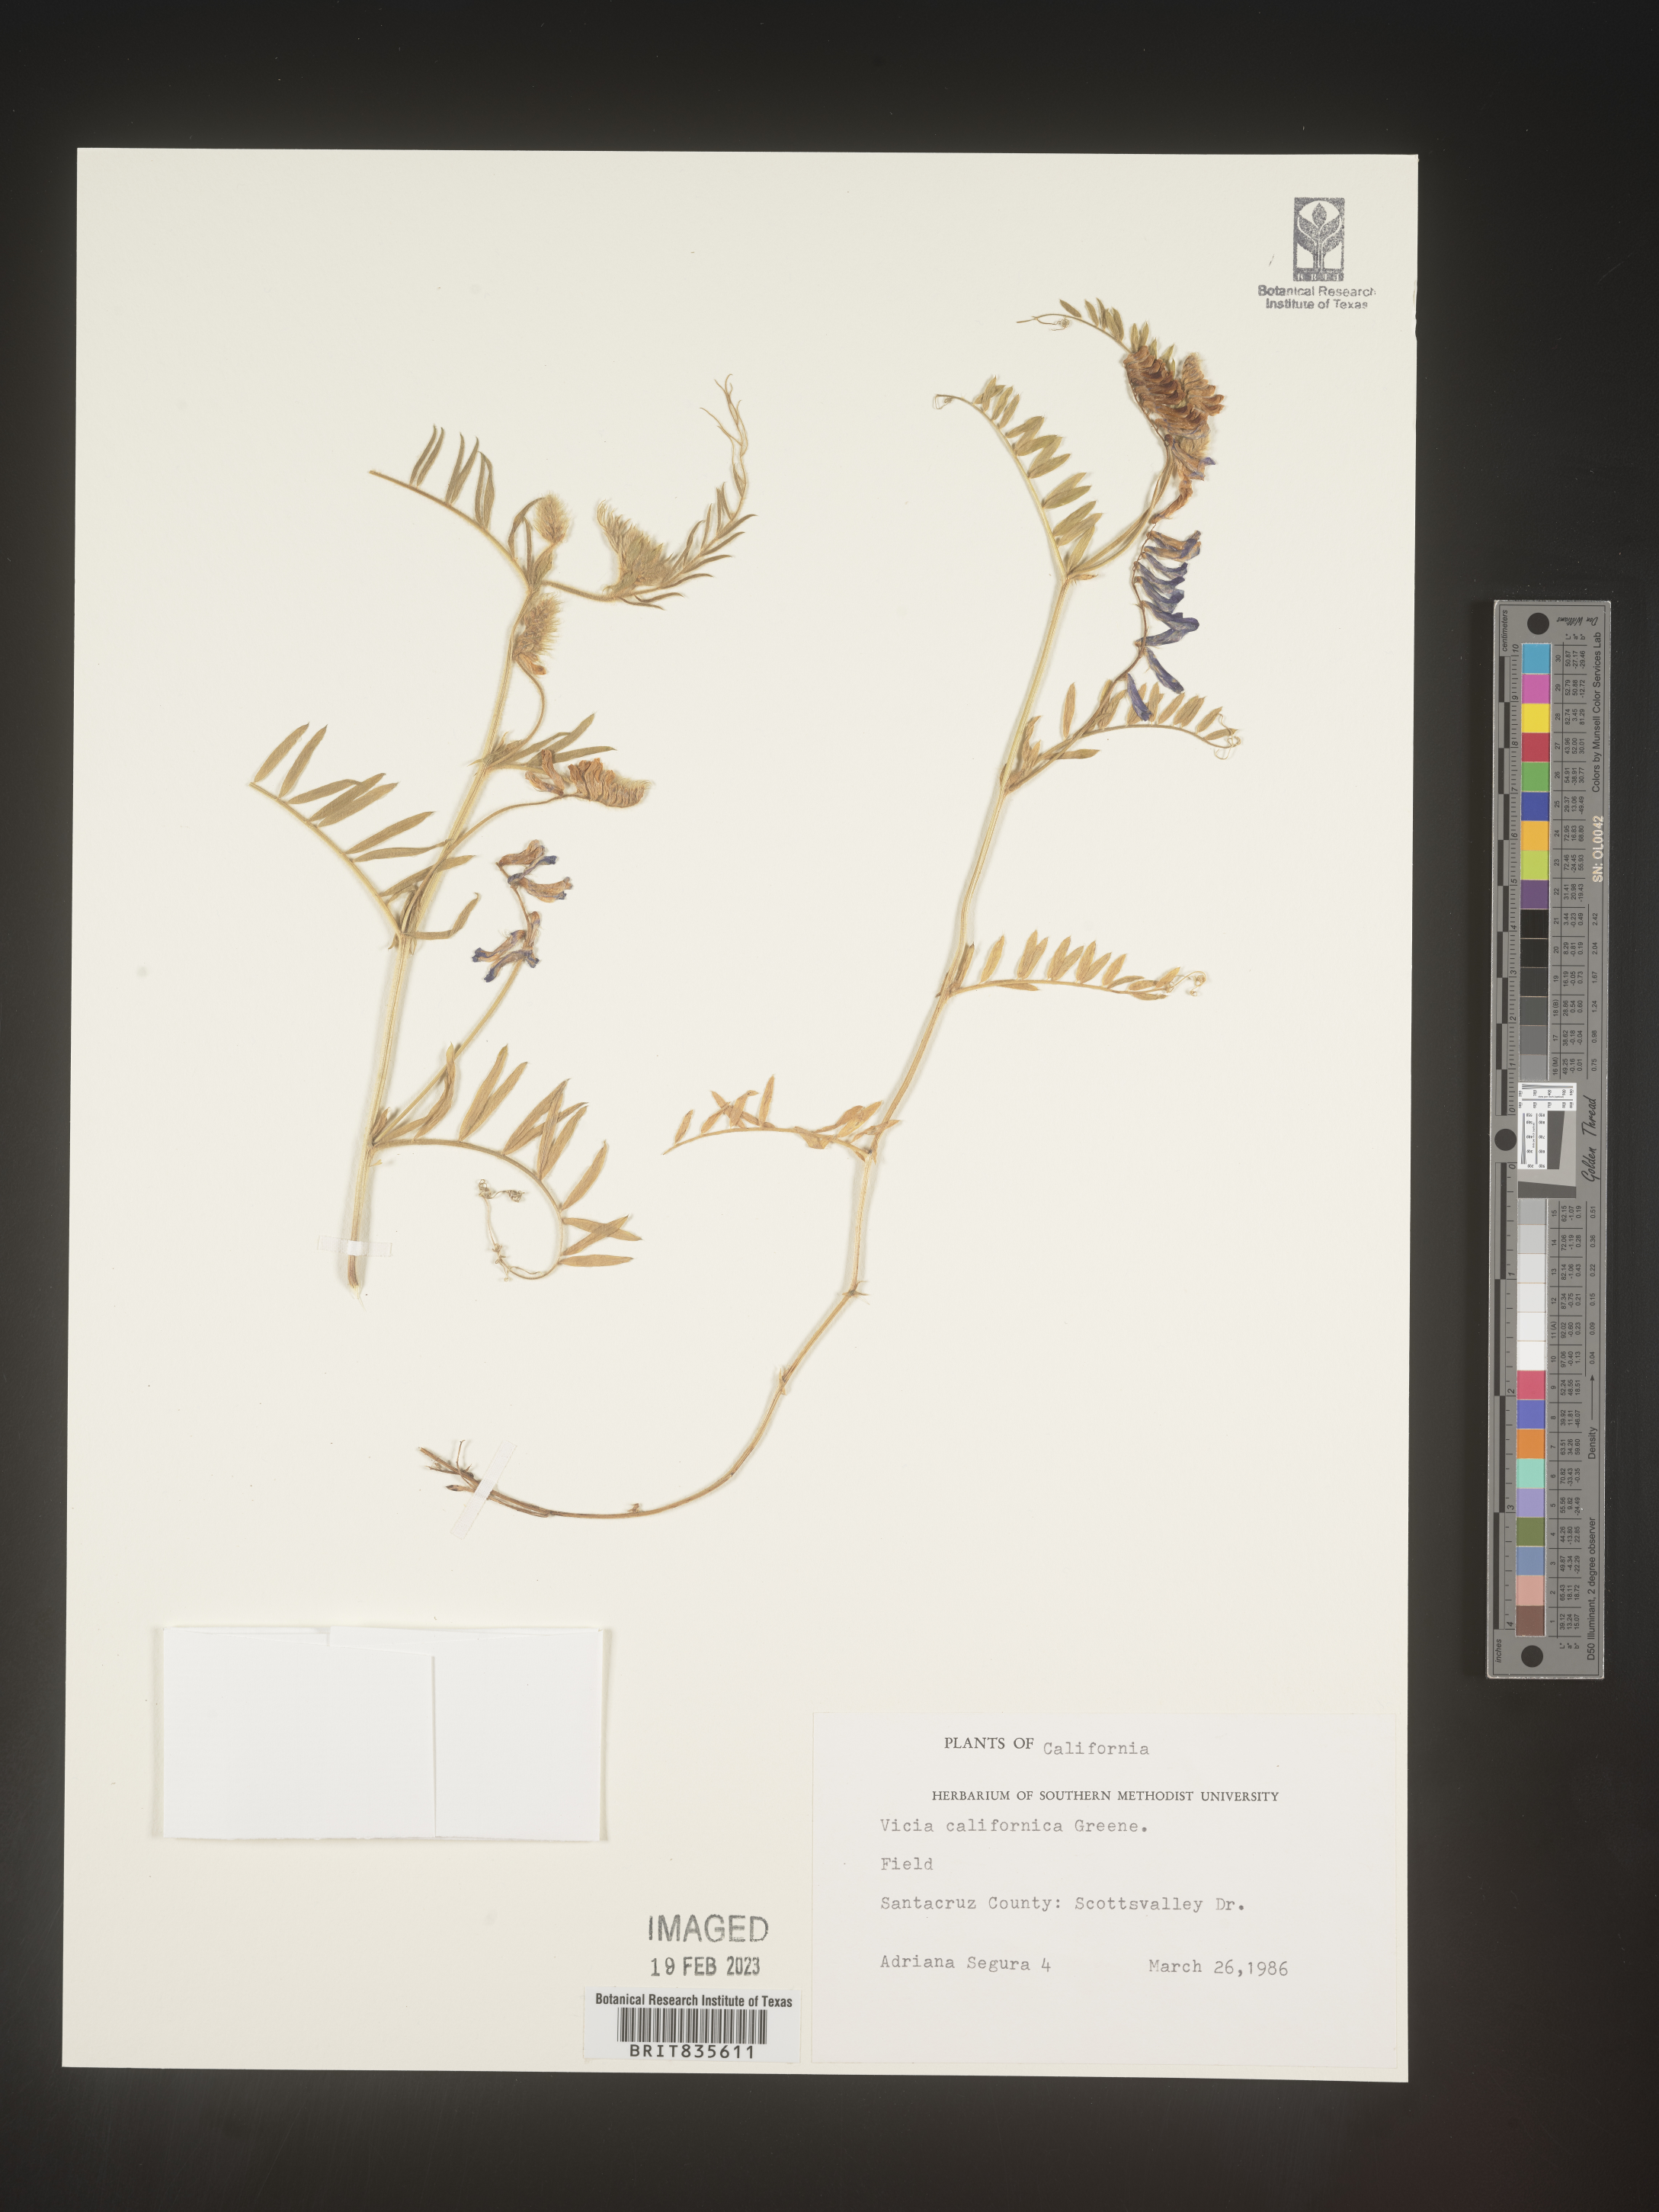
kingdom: Plantae
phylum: Tracheophyta
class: Magnoliopsida
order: Fabales
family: Fabaceae
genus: Vicia
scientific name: Vicia americana
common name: American vetch
